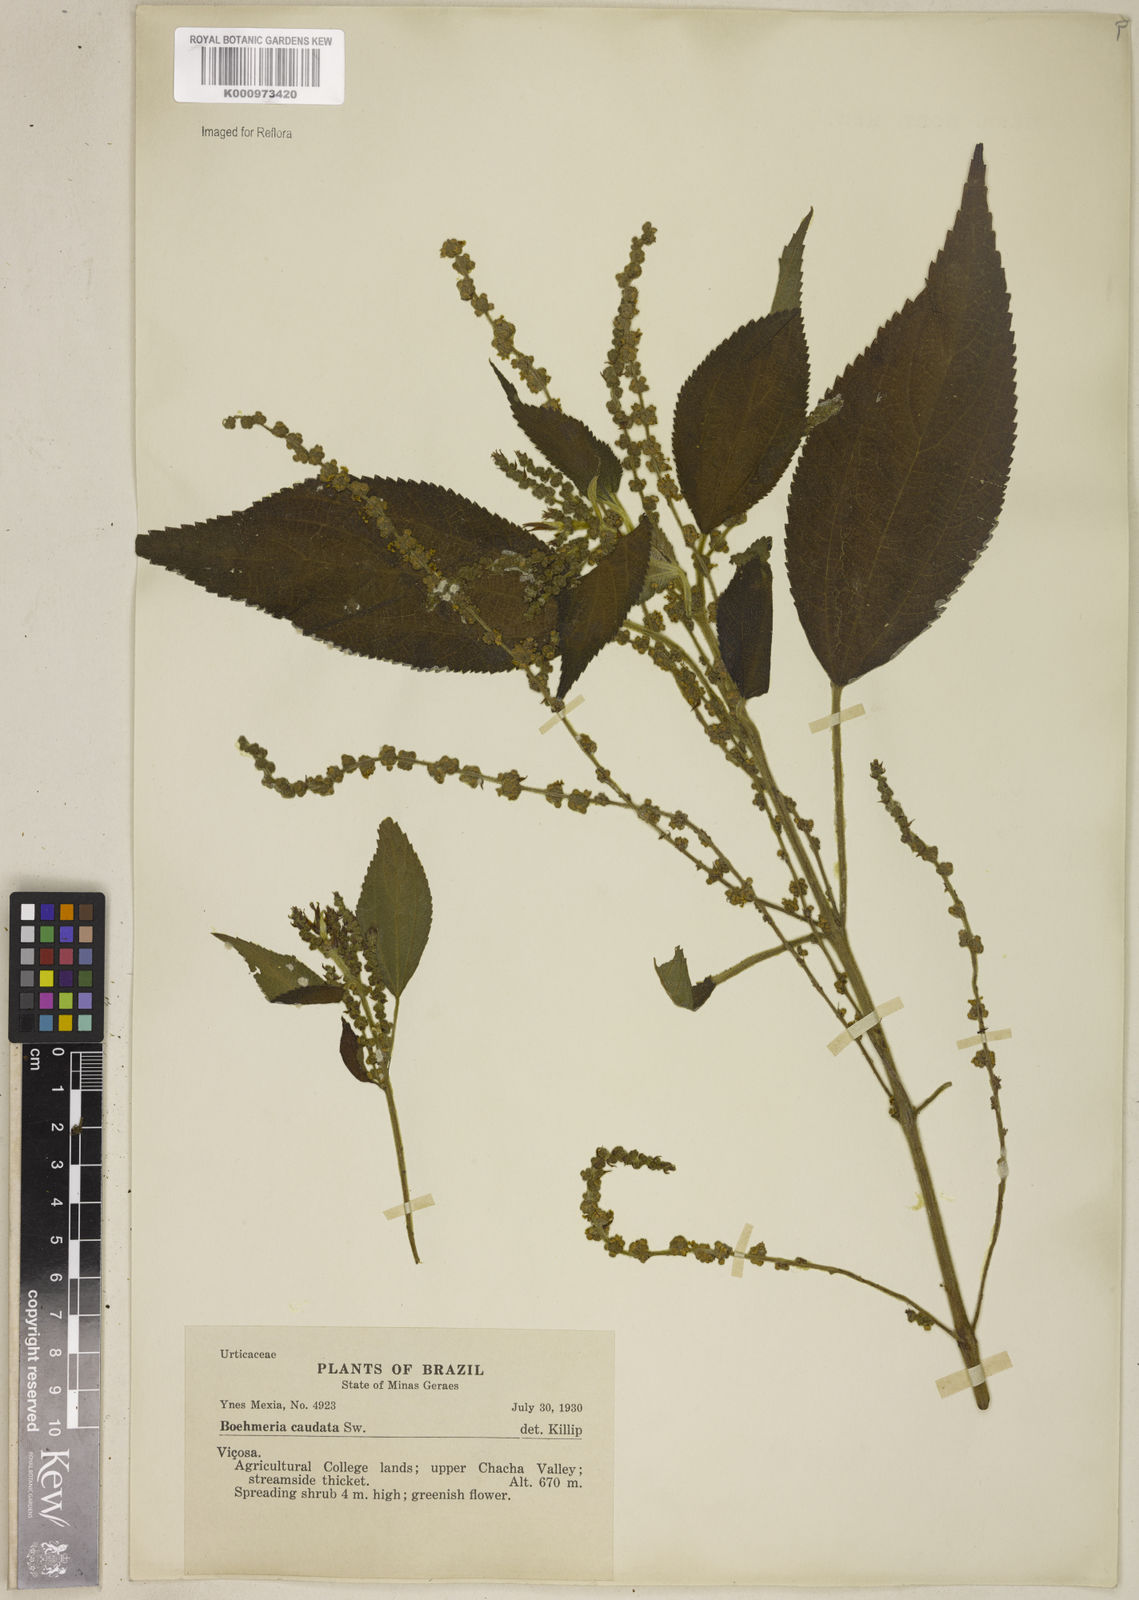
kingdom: Plantae
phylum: Tracheophyta
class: Magnoliopsida
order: Rosales
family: Urticaceae
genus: Boehmeria
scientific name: Boehmeria caudata
